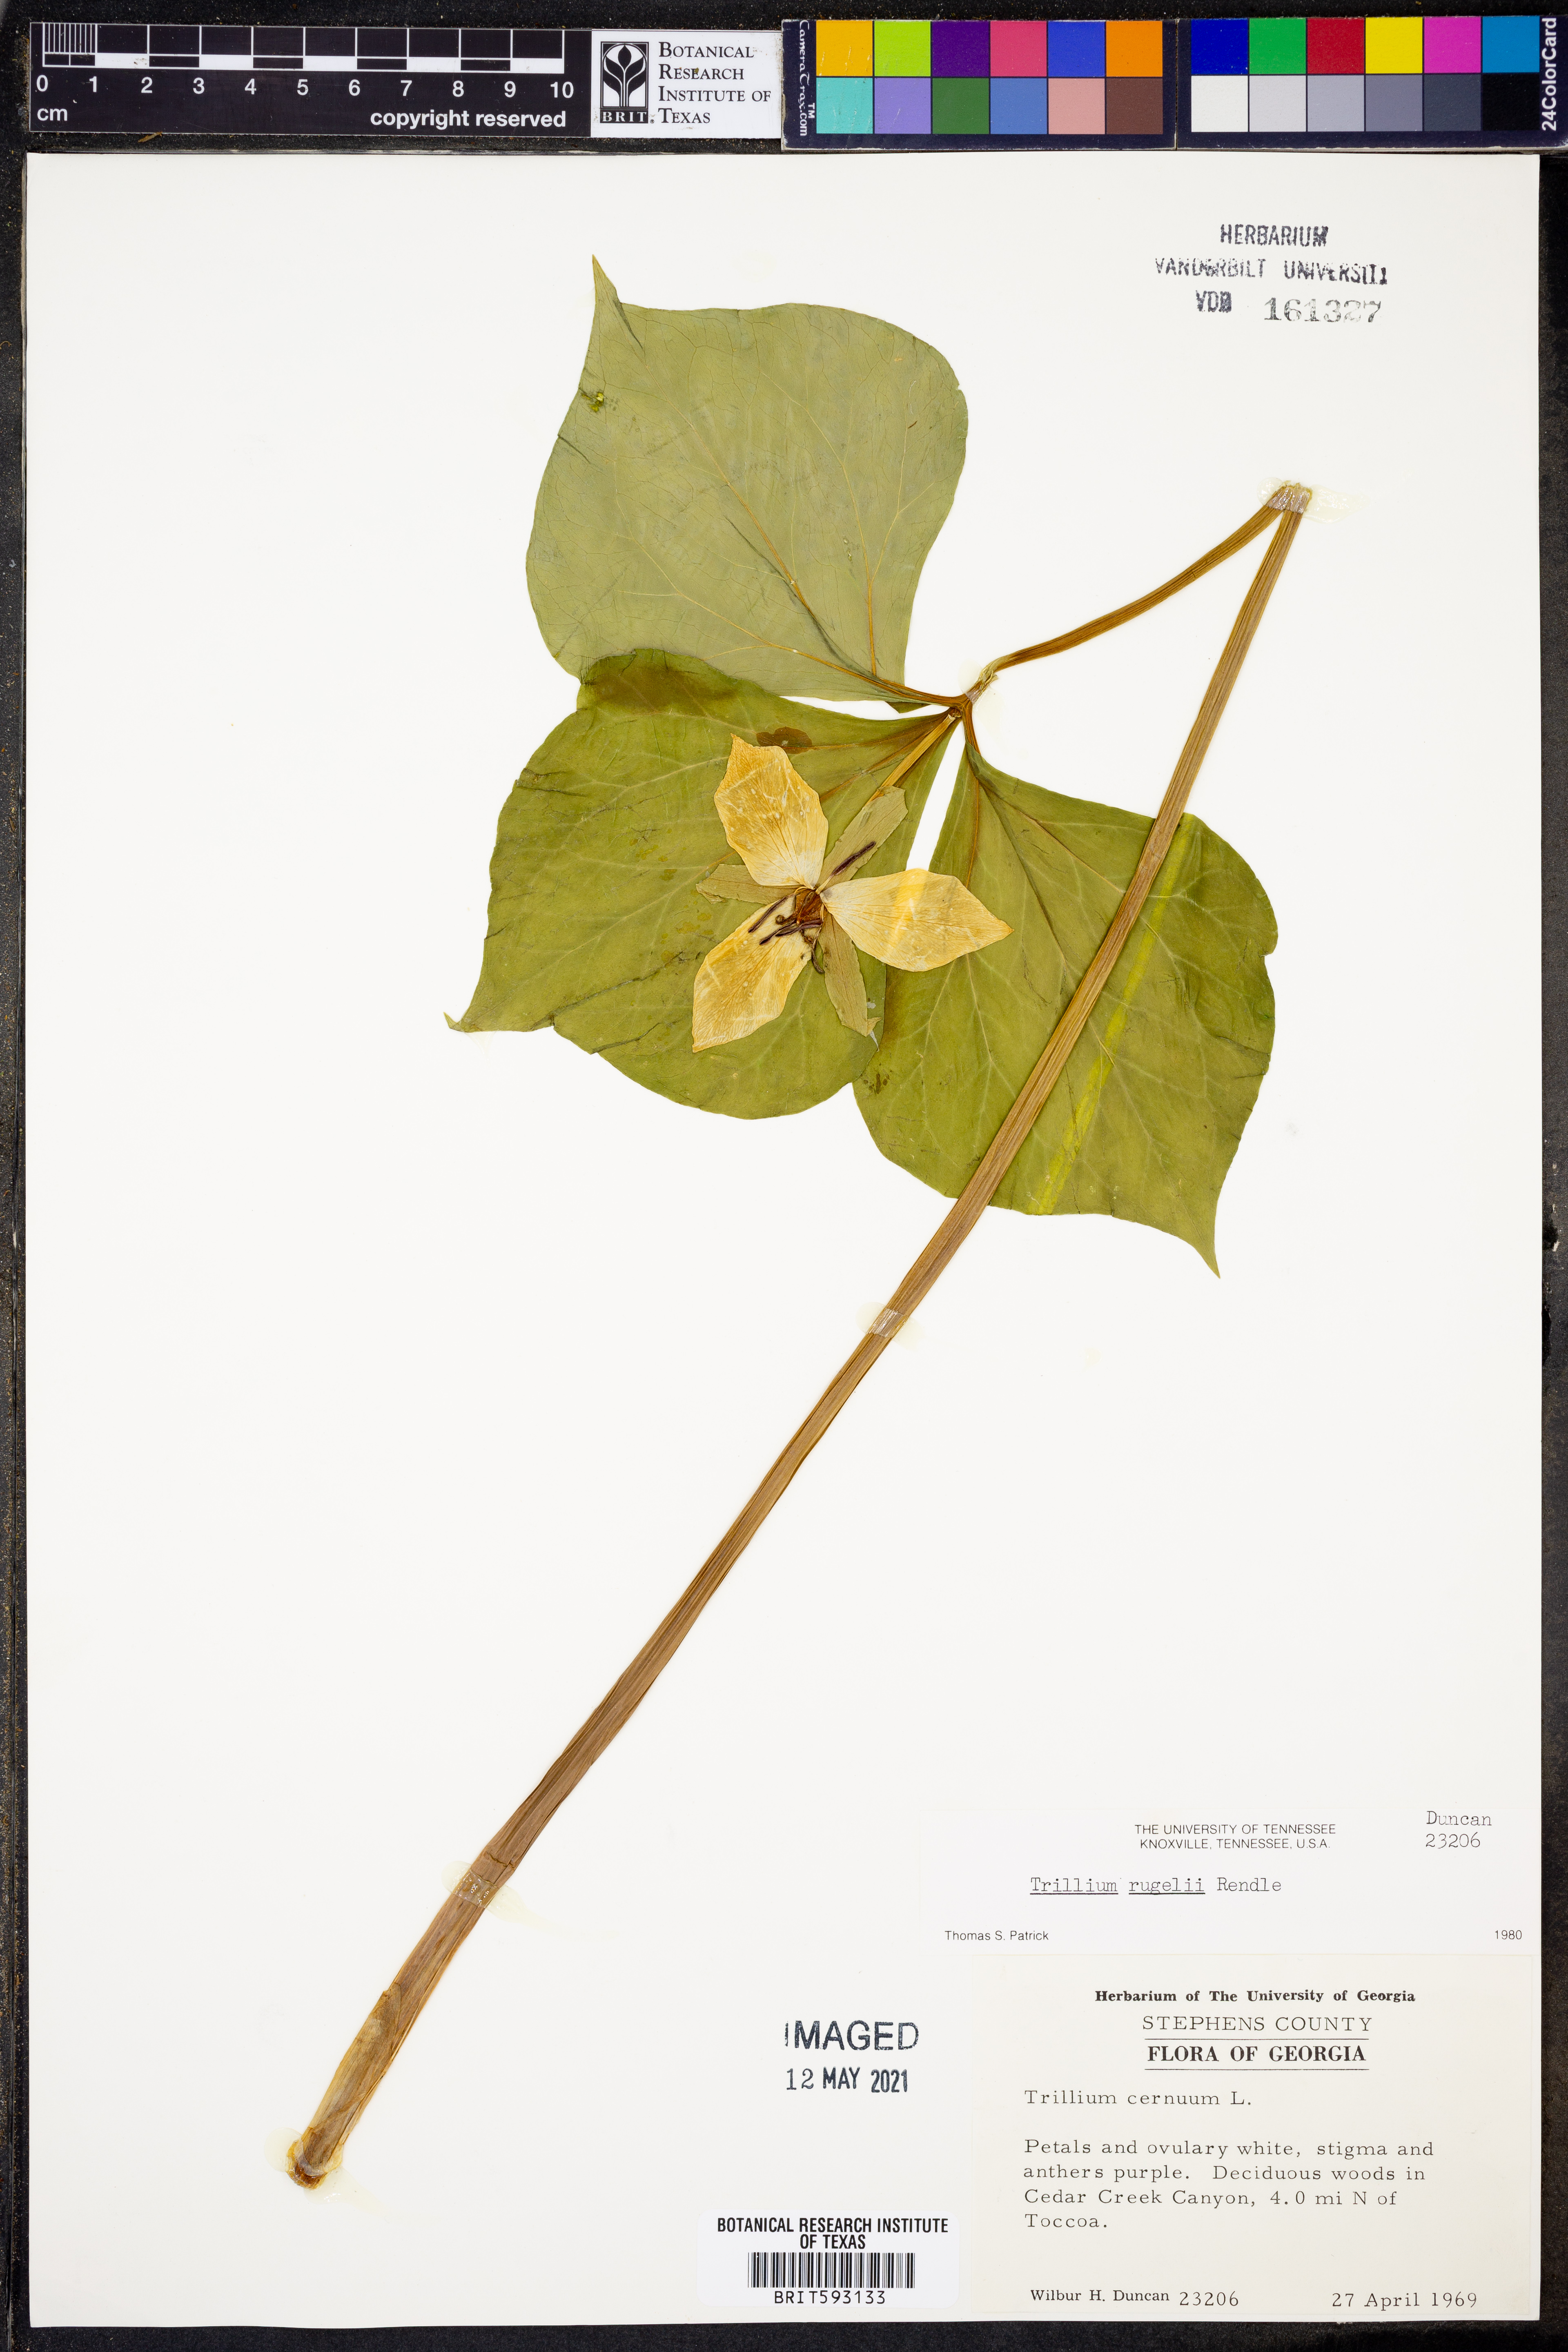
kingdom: Plantae
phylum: Tracheophyta
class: Liliopsida
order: Liliales
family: Melanthiaceae
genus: Trillium
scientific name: Trillium rugelii
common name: Ill-scented trillium
